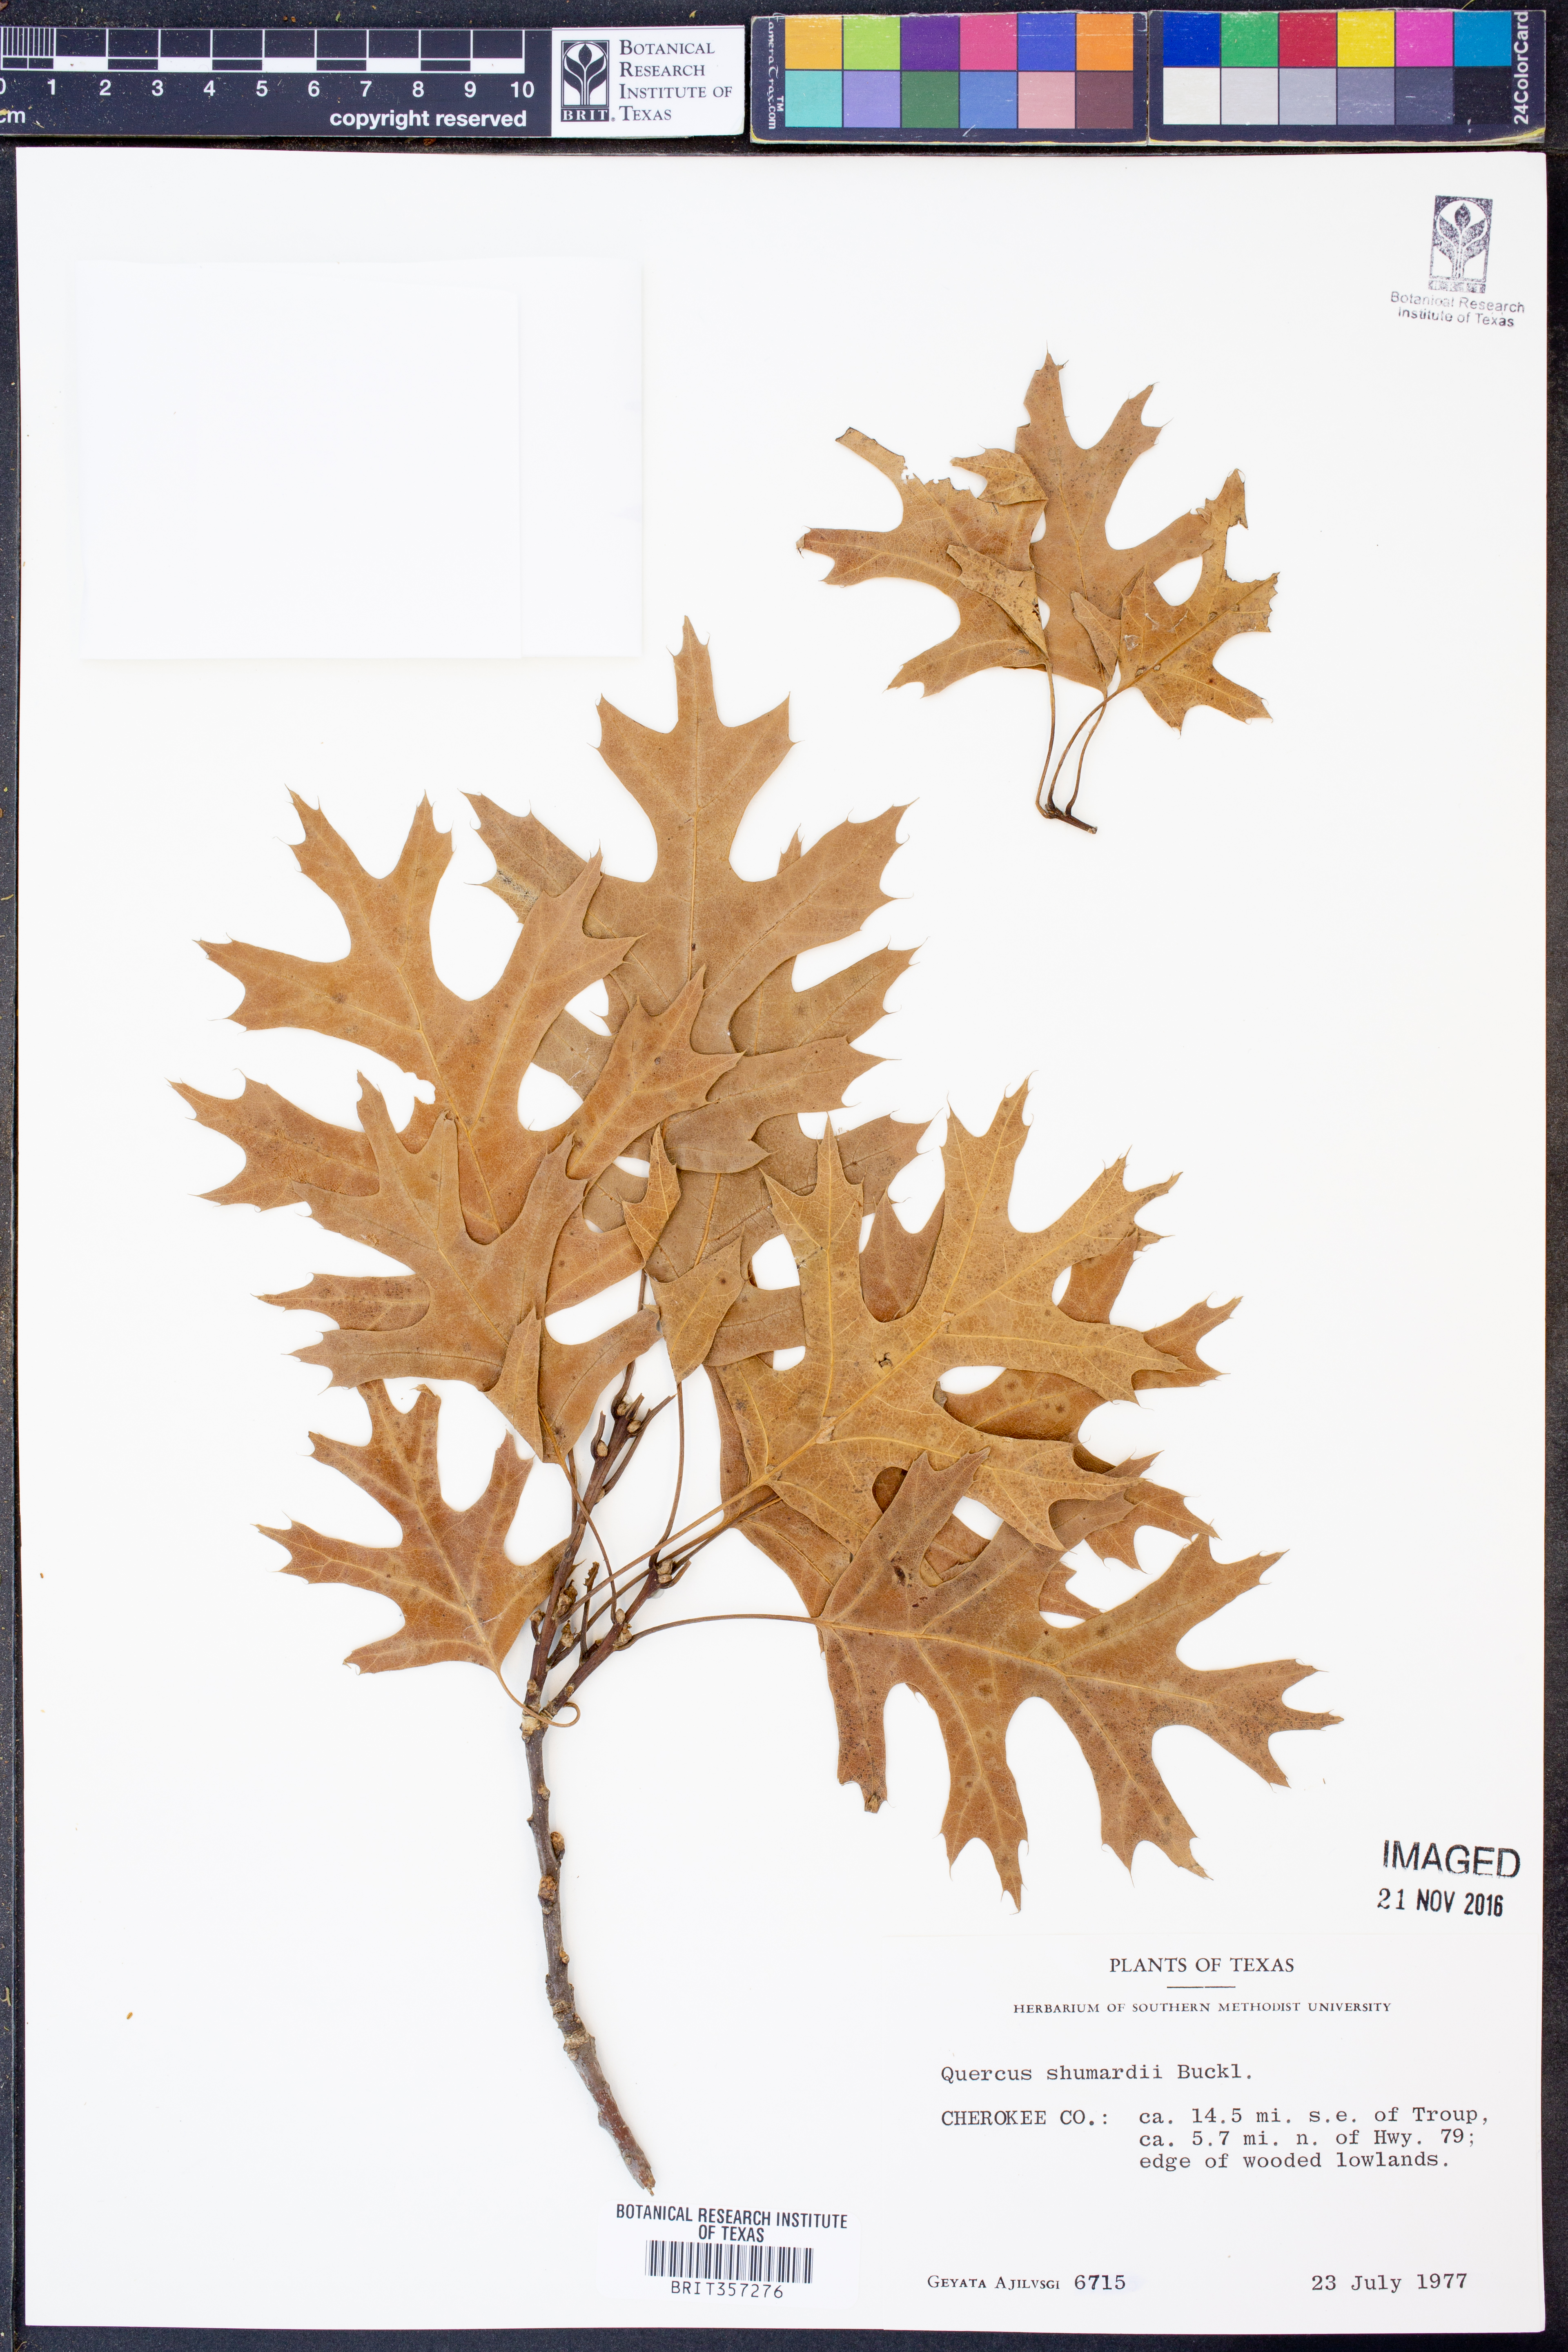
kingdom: Plantae
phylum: Tracheophyta
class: Magnoliopsida
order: Fagales
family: Fagaceae
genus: Quercus
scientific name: Quercus shumardii
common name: Shumard oak
